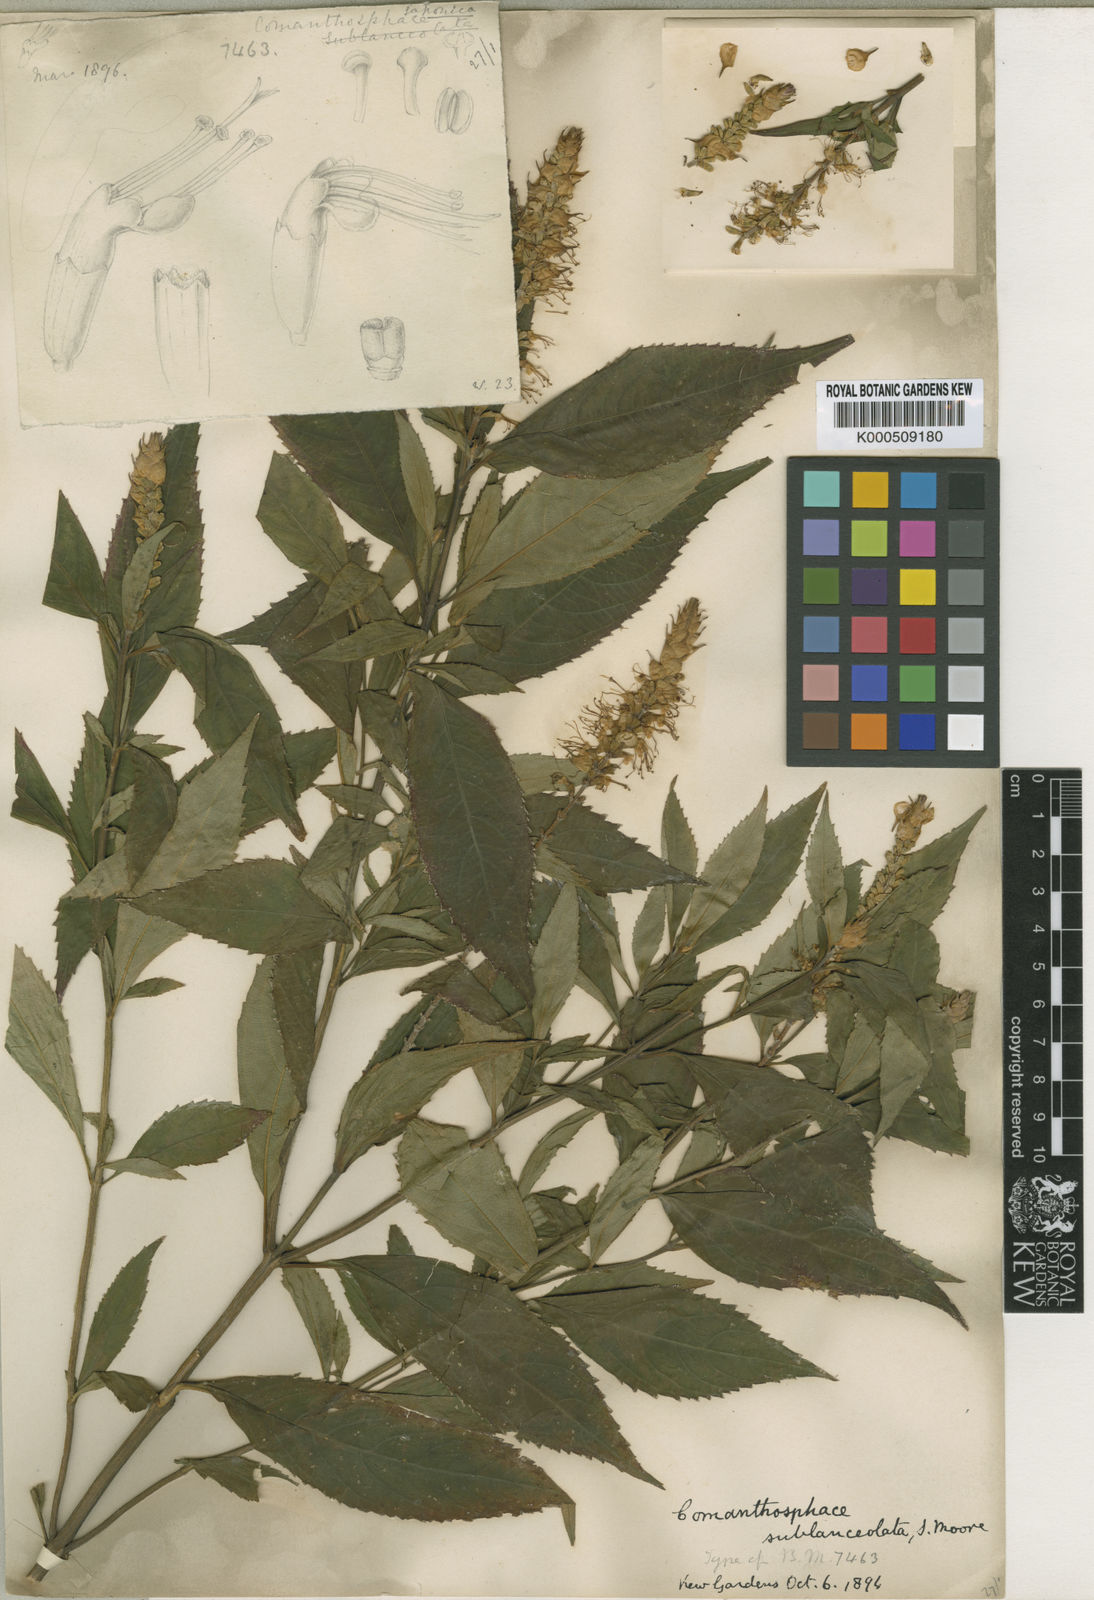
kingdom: Plantae
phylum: Tracheophyta
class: Magnoliopsida
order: Lamiales
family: Lamiaceae
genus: Comanthosphace
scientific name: Comanthosphace japonica
